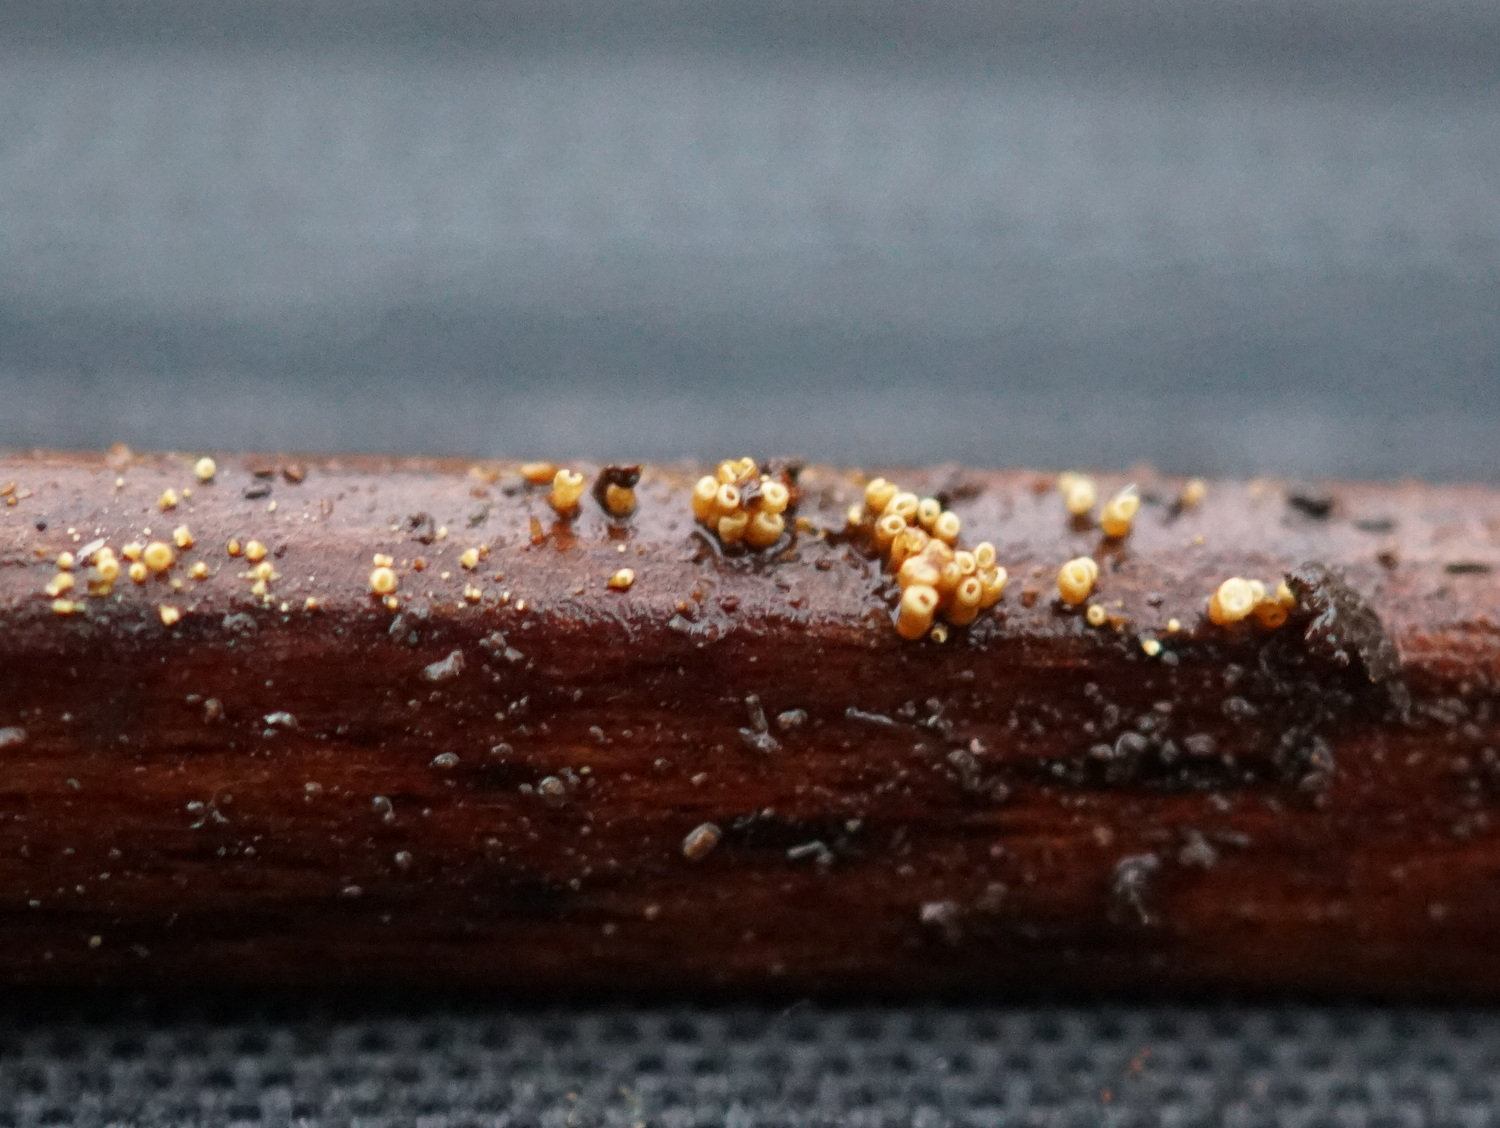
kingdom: Fungi
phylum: Basidiomycota
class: Agaricomycetes
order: Agaricales
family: Niaceae
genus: Woldmaria
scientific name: Woldmaria filicina
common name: bregnerør
